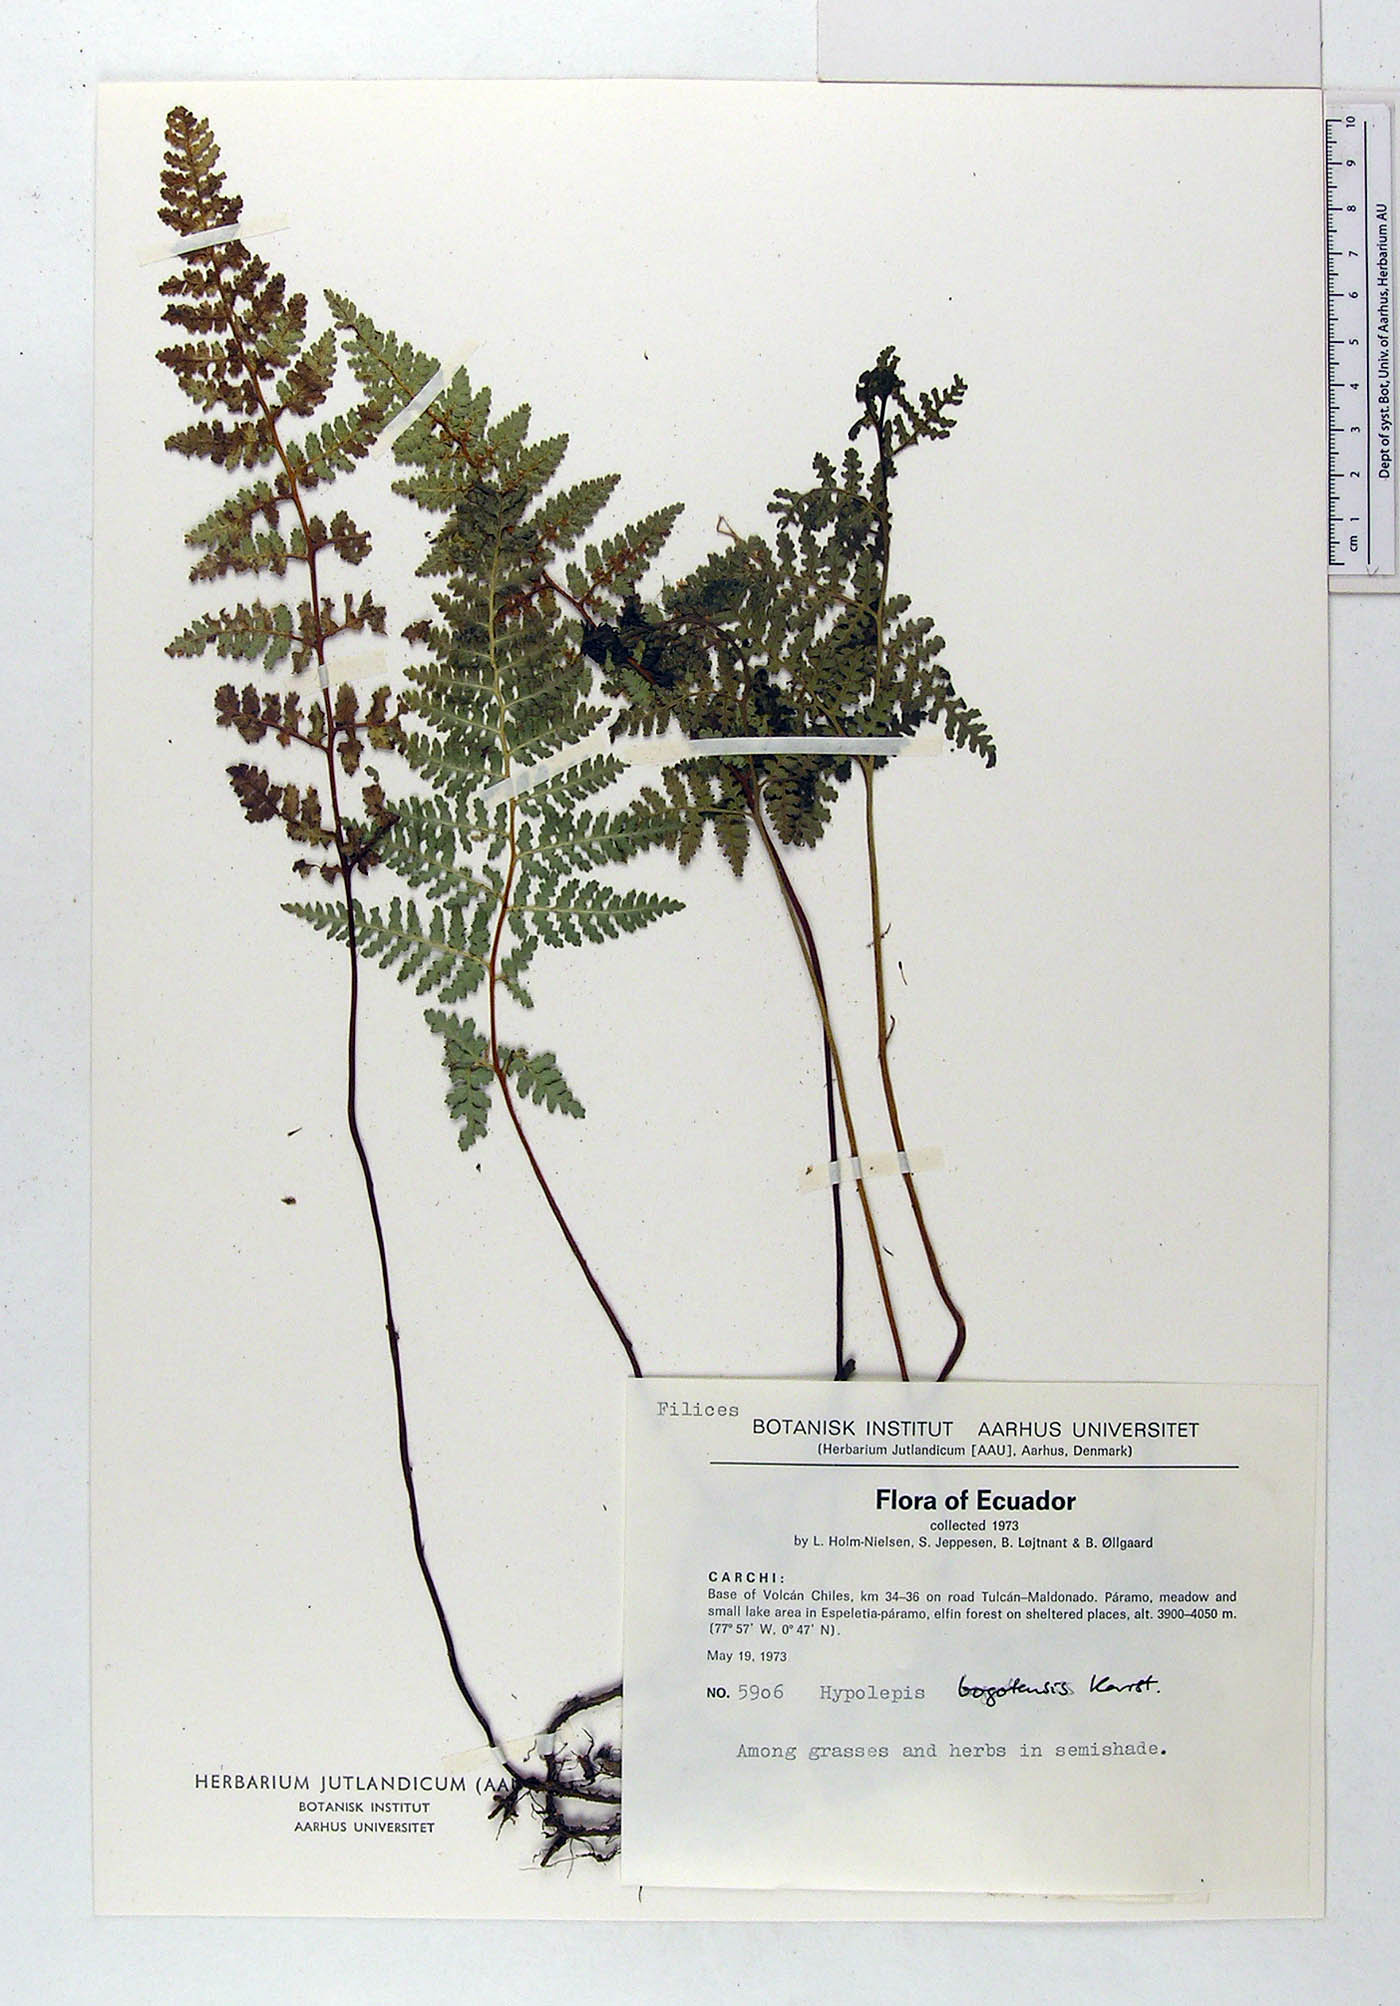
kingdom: Plantae
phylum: Tracheophyta
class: Polypodiopsida
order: Polypodiales
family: Dennstaedtiaceae
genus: Hypolepis
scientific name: Hypolepis bogotensis
